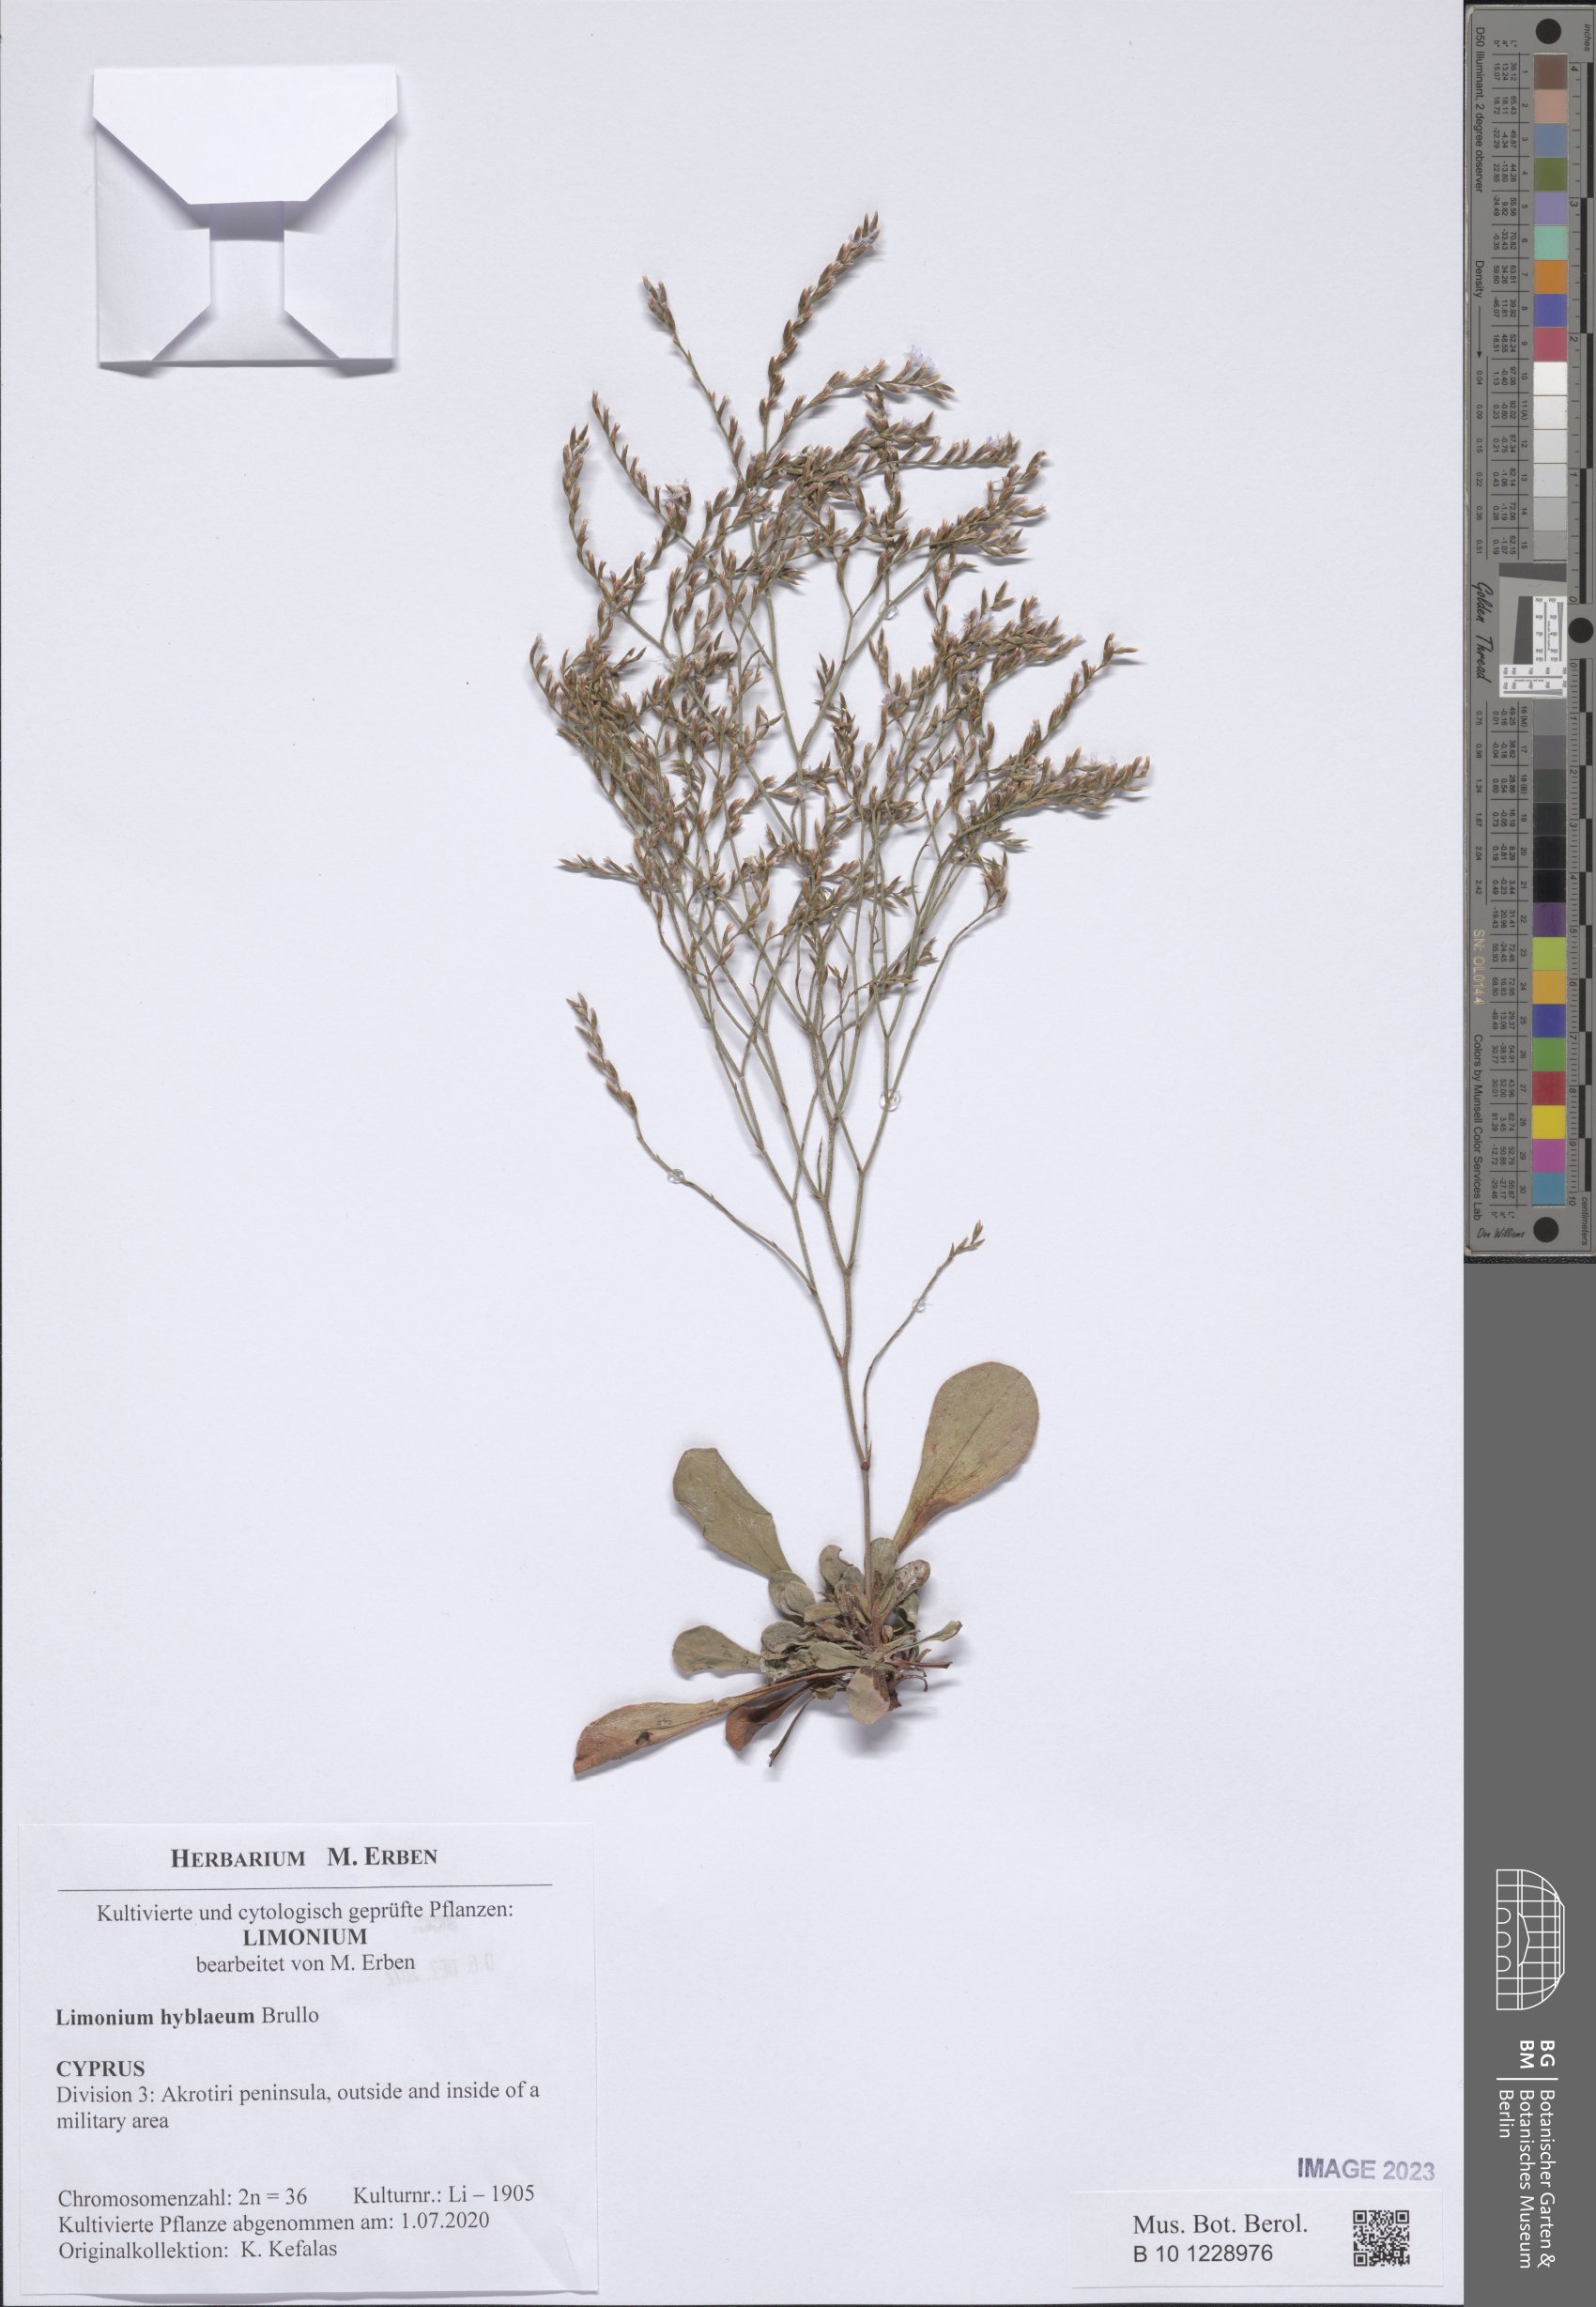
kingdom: Plantae
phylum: Tracheophyta
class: Magnoliopsida
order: Caryophyllales
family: Plumbaginaceae
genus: Limonium
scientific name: Limonium hyblaeum
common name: Rottingdean sea-lavender
